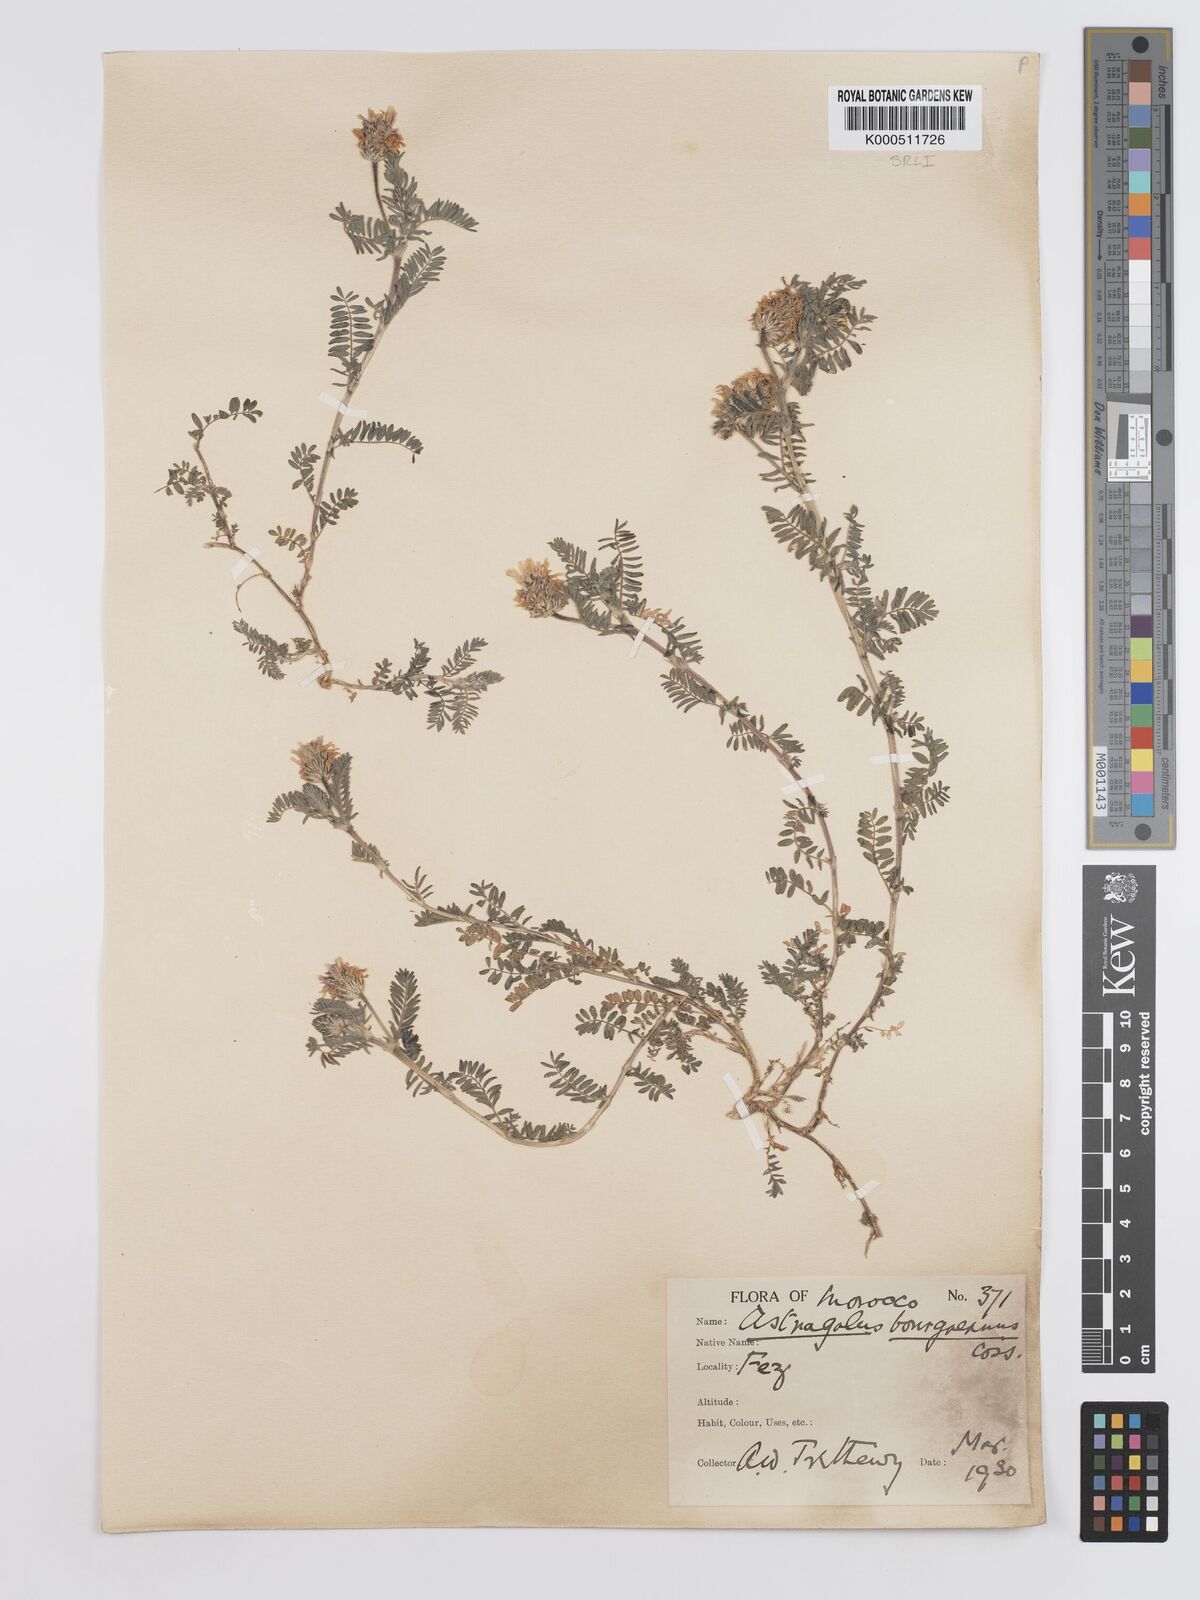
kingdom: Plantae
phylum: Tracheophyta
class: Magnoliopsida
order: Fabales
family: Fabaceae
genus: Astragalus
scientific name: Astragalus bourgaeanus
